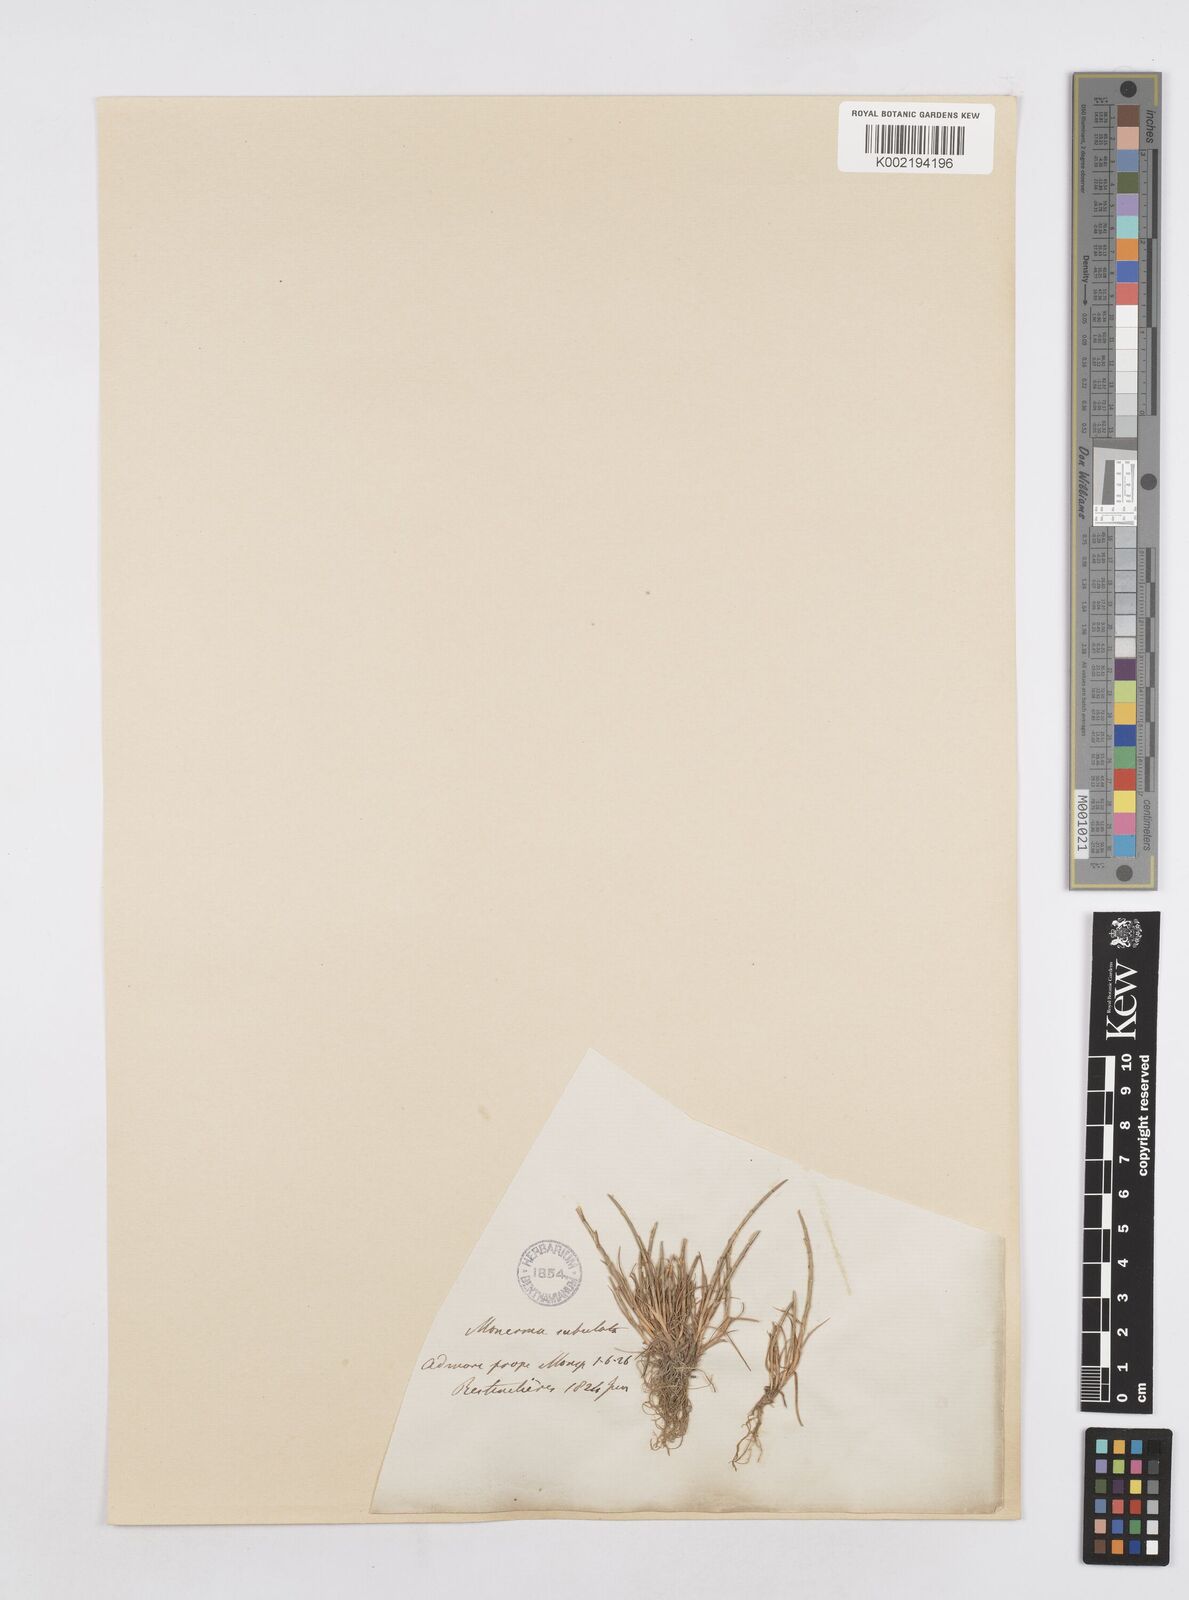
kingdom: Plantae
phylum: Tracheophyta
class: Liliopsida
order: Poales
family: Poaceae
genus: Parapholis
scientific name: Parapholis cylindrica
